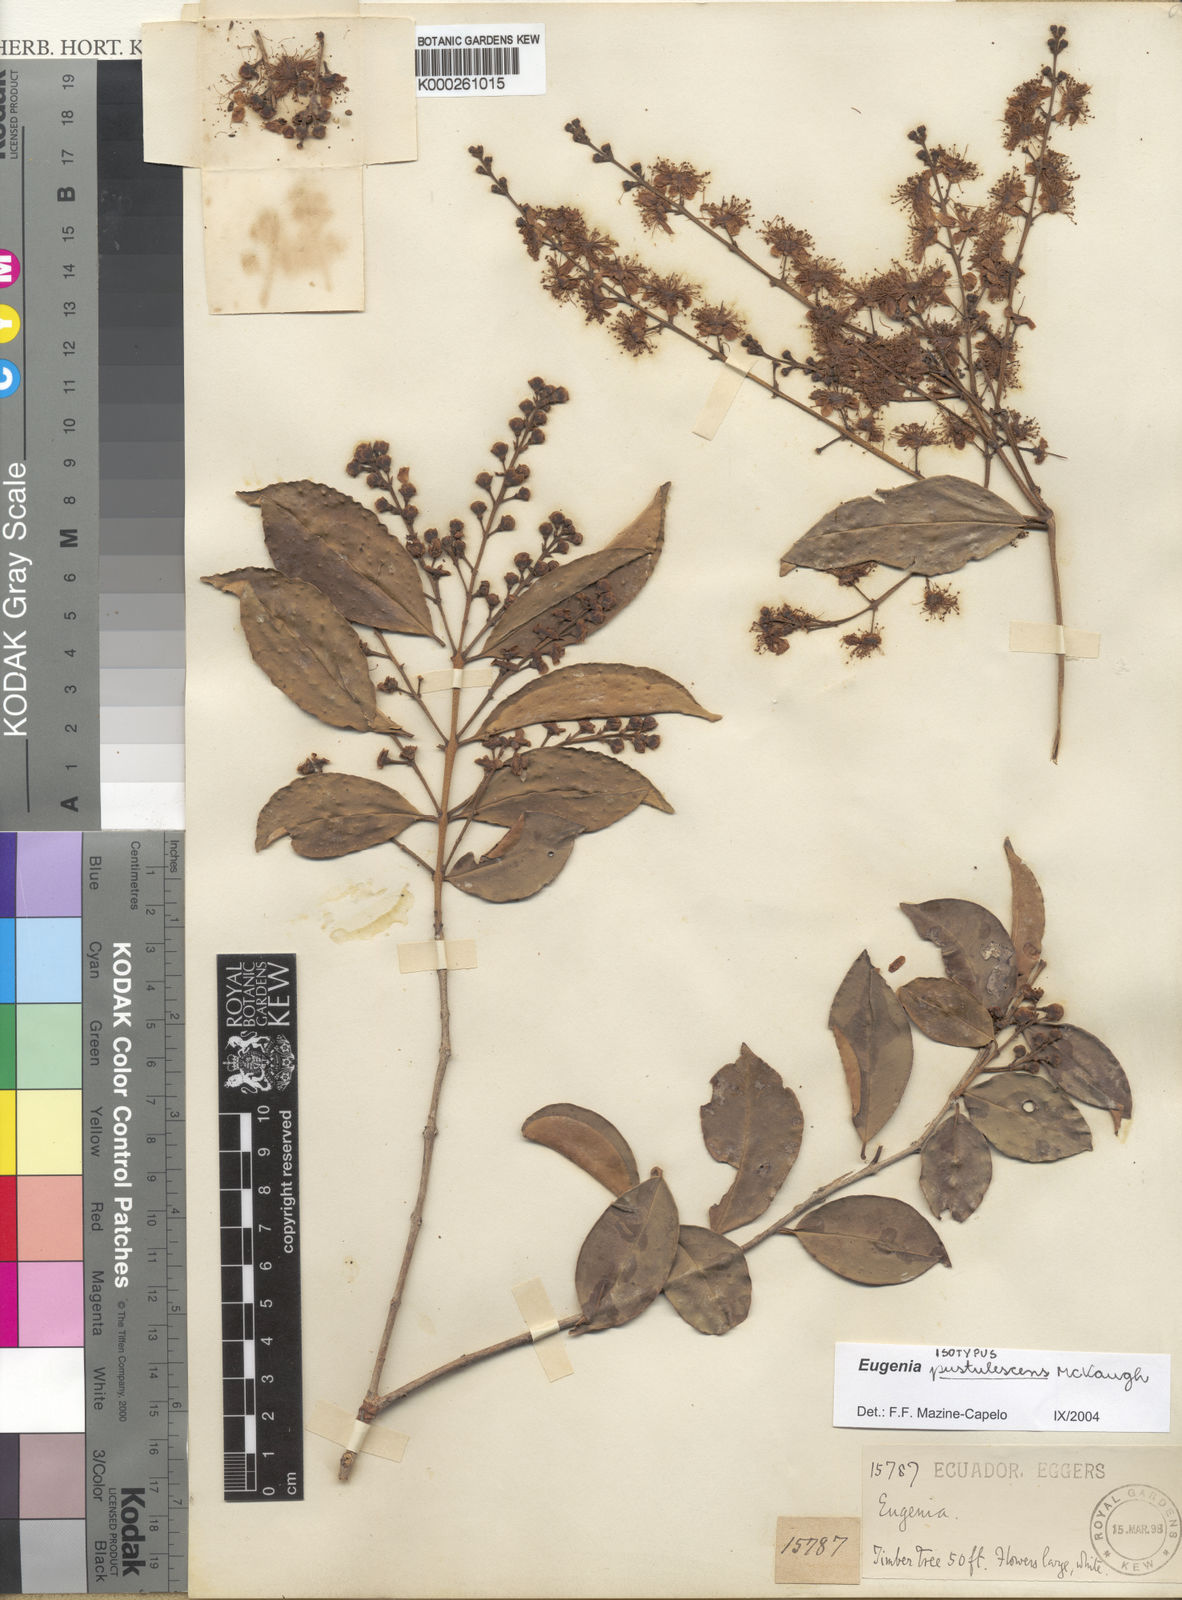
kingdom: Plantae
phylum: Tracheophyta
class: Magnoliopsida
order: Myrtales
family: Myrtaceae
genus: Eugenia
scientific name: Eugenia pustulescens
